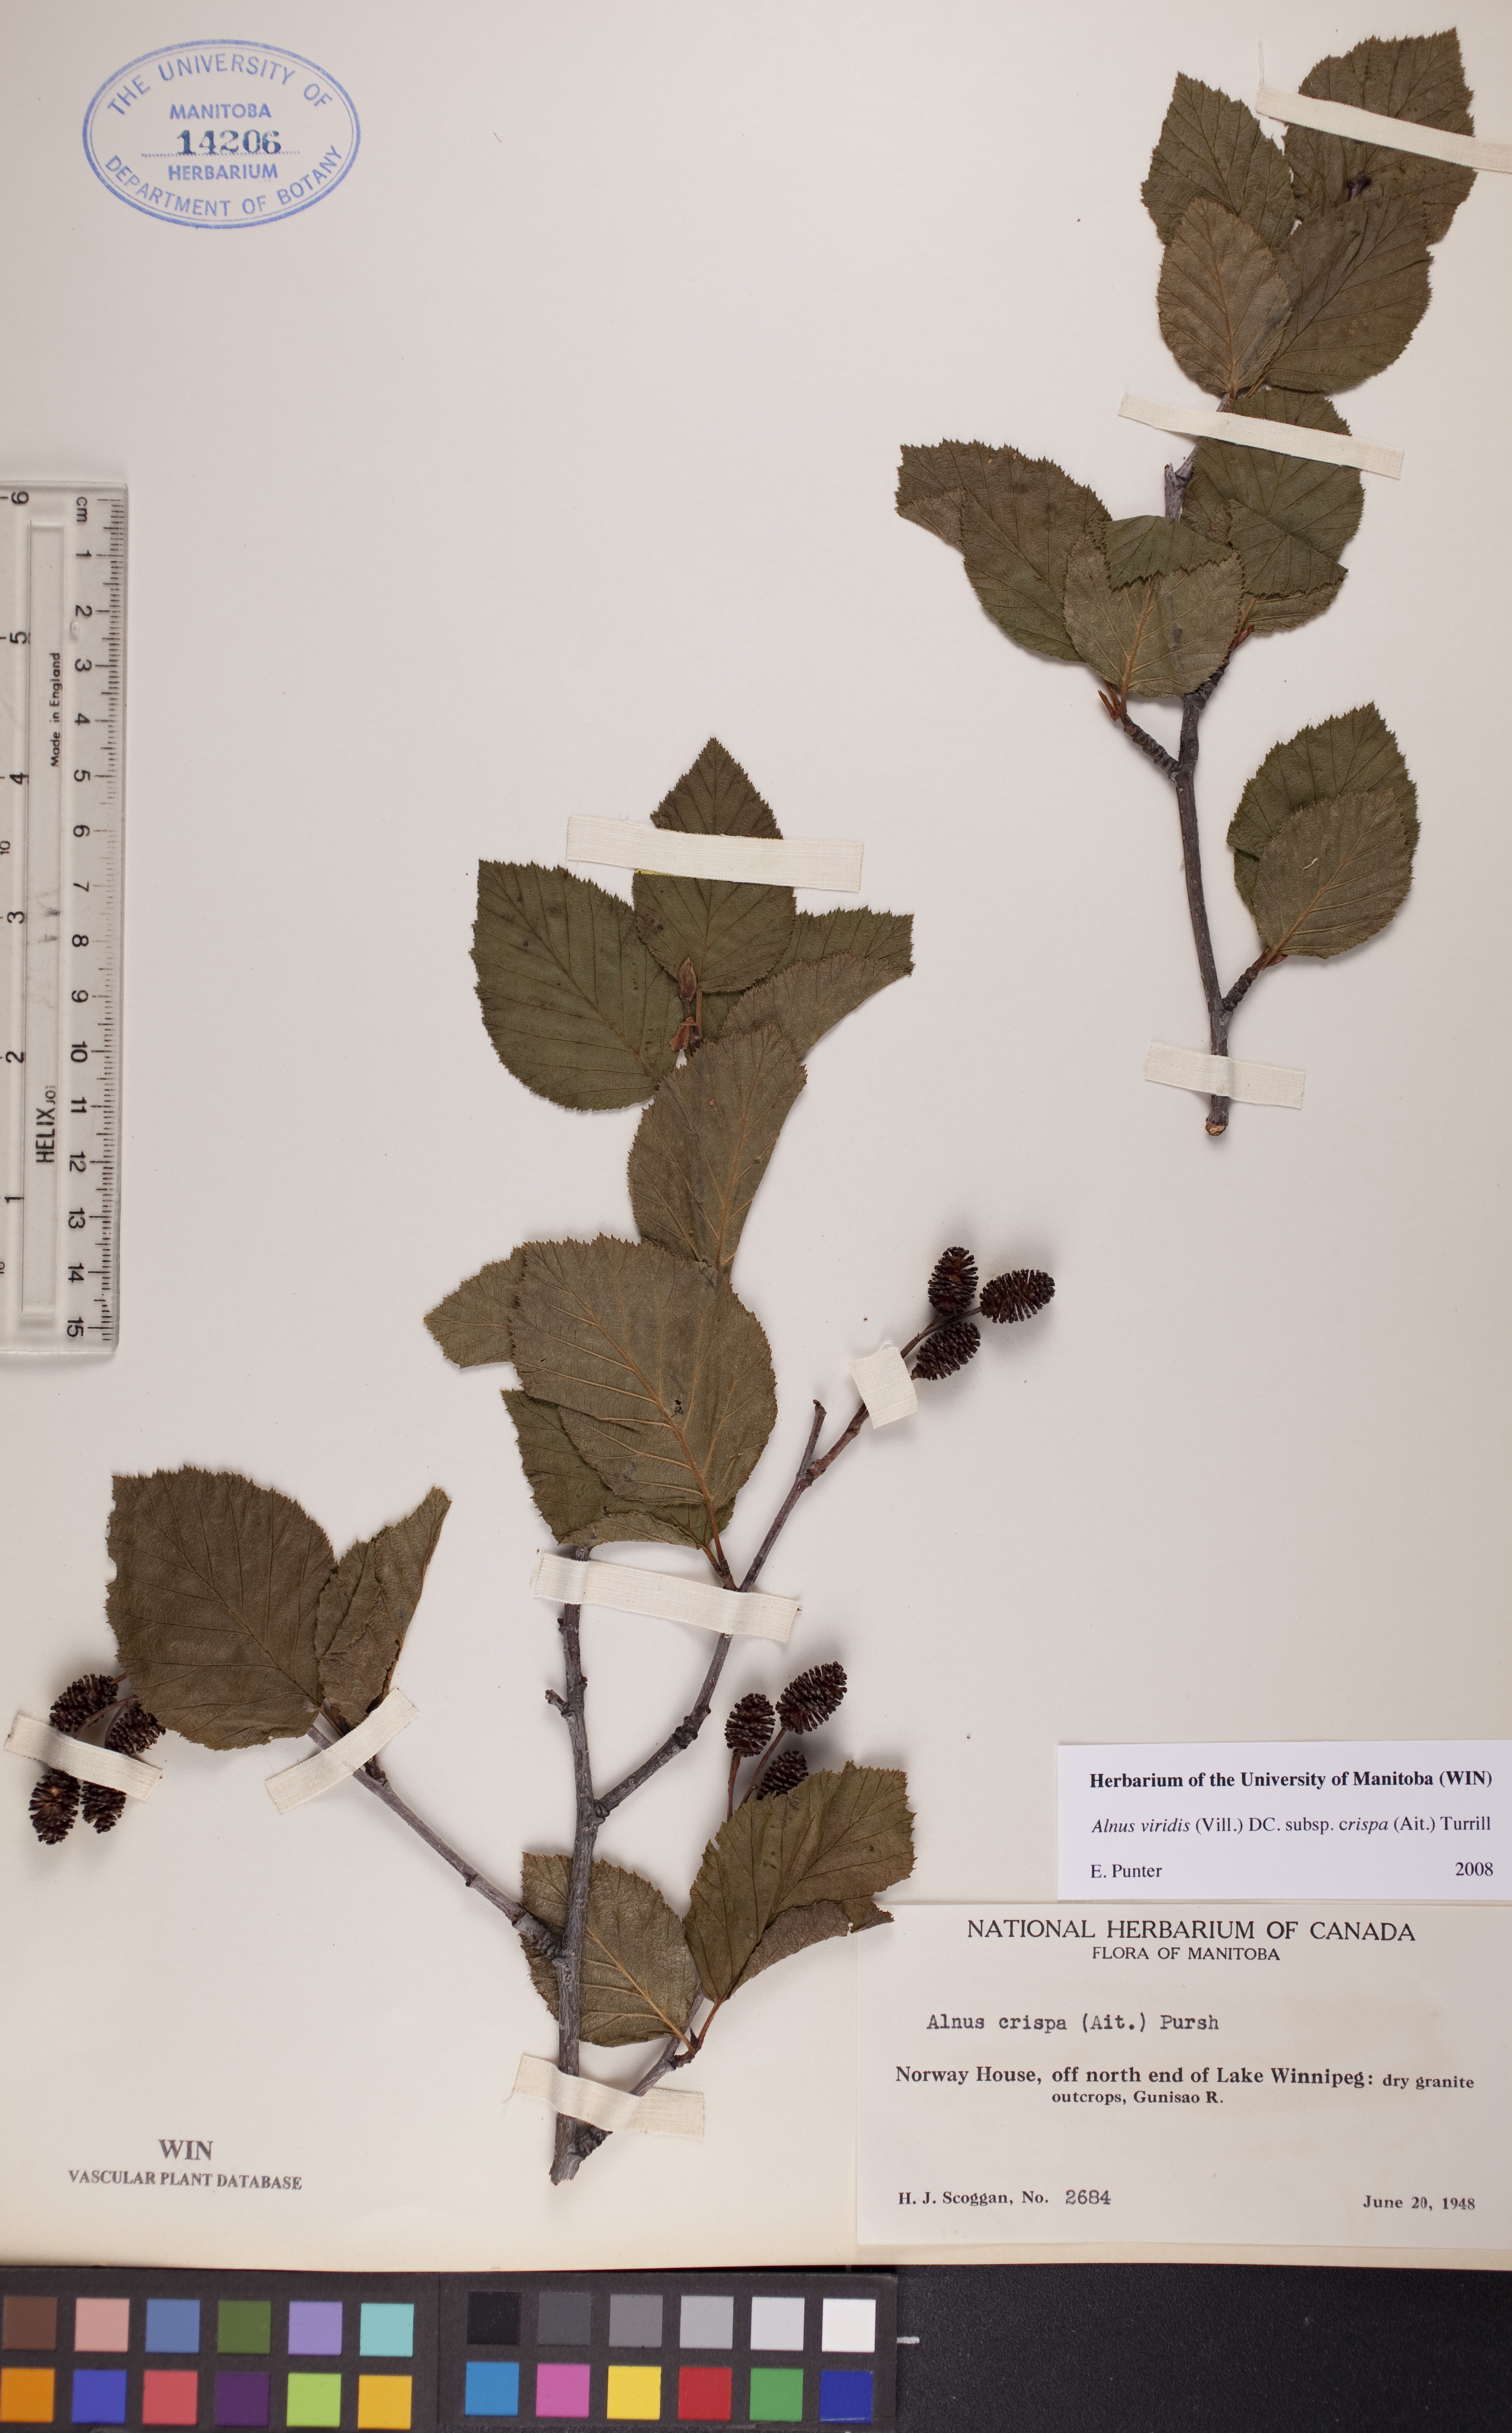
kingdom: Plantae
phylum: Tracheophyta
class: Magnoliopsida
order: Fagales
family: Betulaceae
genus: Alnus
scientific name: Alnus alnobetula
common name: Green alder
